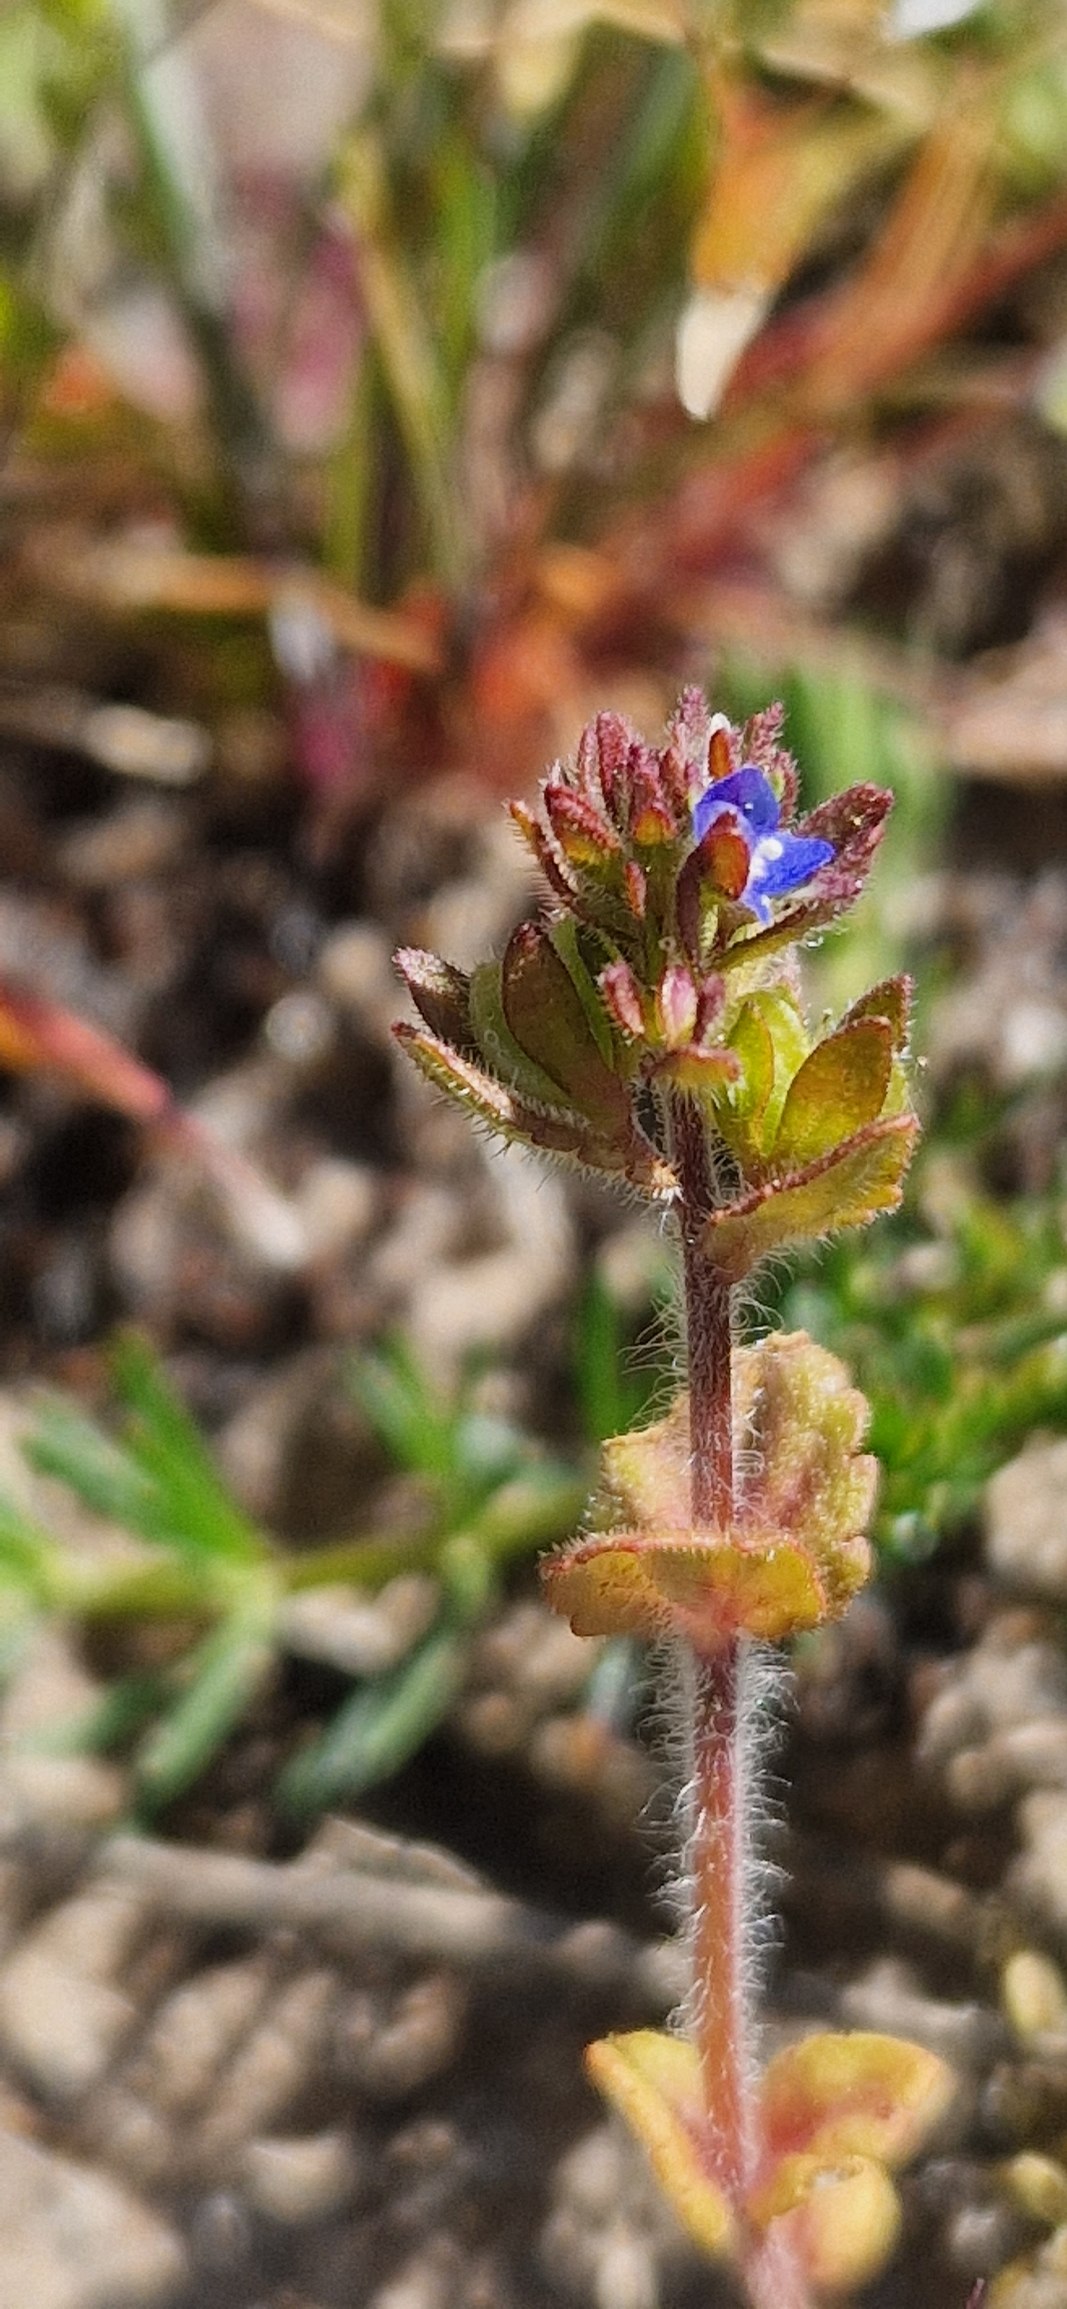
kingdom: Plantae
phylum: Tracheophyta
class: Magnoliopsida
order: Lamiales
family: Plantaginaceae
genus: Veronica
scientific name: Veronica arvensis
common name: Mark-ærenpris
